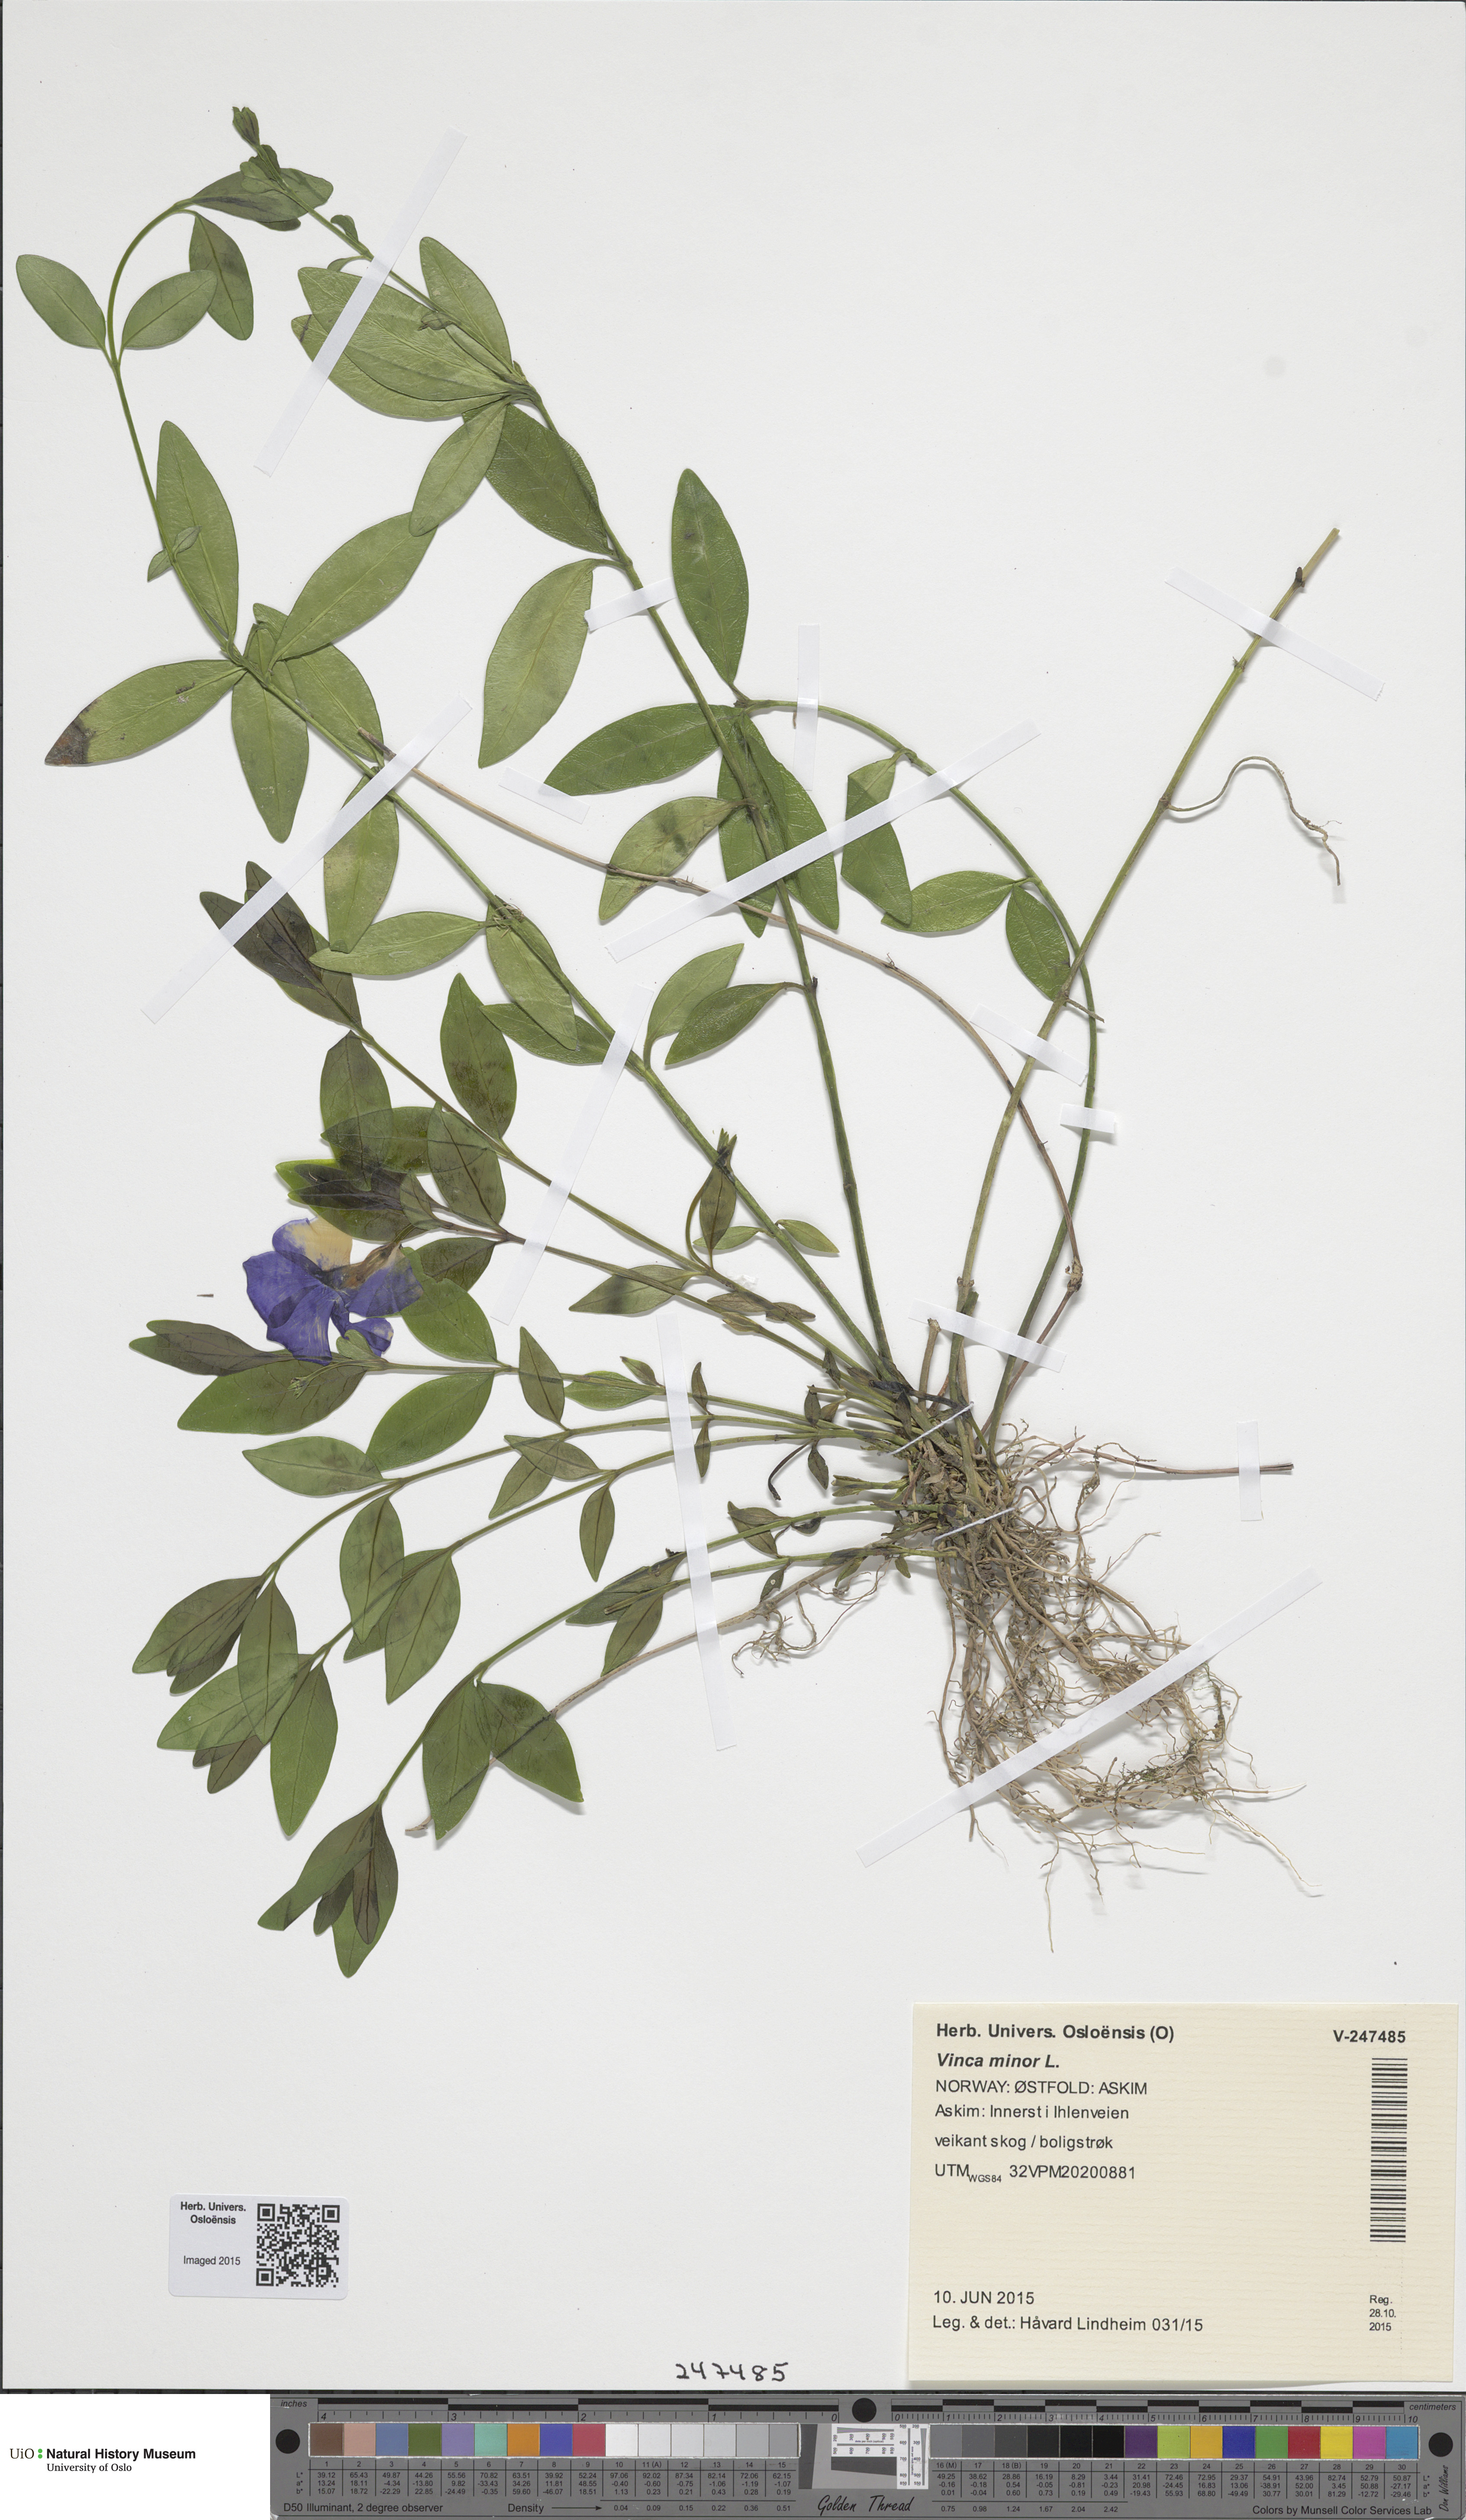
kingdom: Plantae
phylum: Tracheophyta
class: Magnoliopsida
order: Gentianales
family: Apocynaceae
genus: Vinca
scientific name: Vinca minor
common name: Lesser periwinkle
